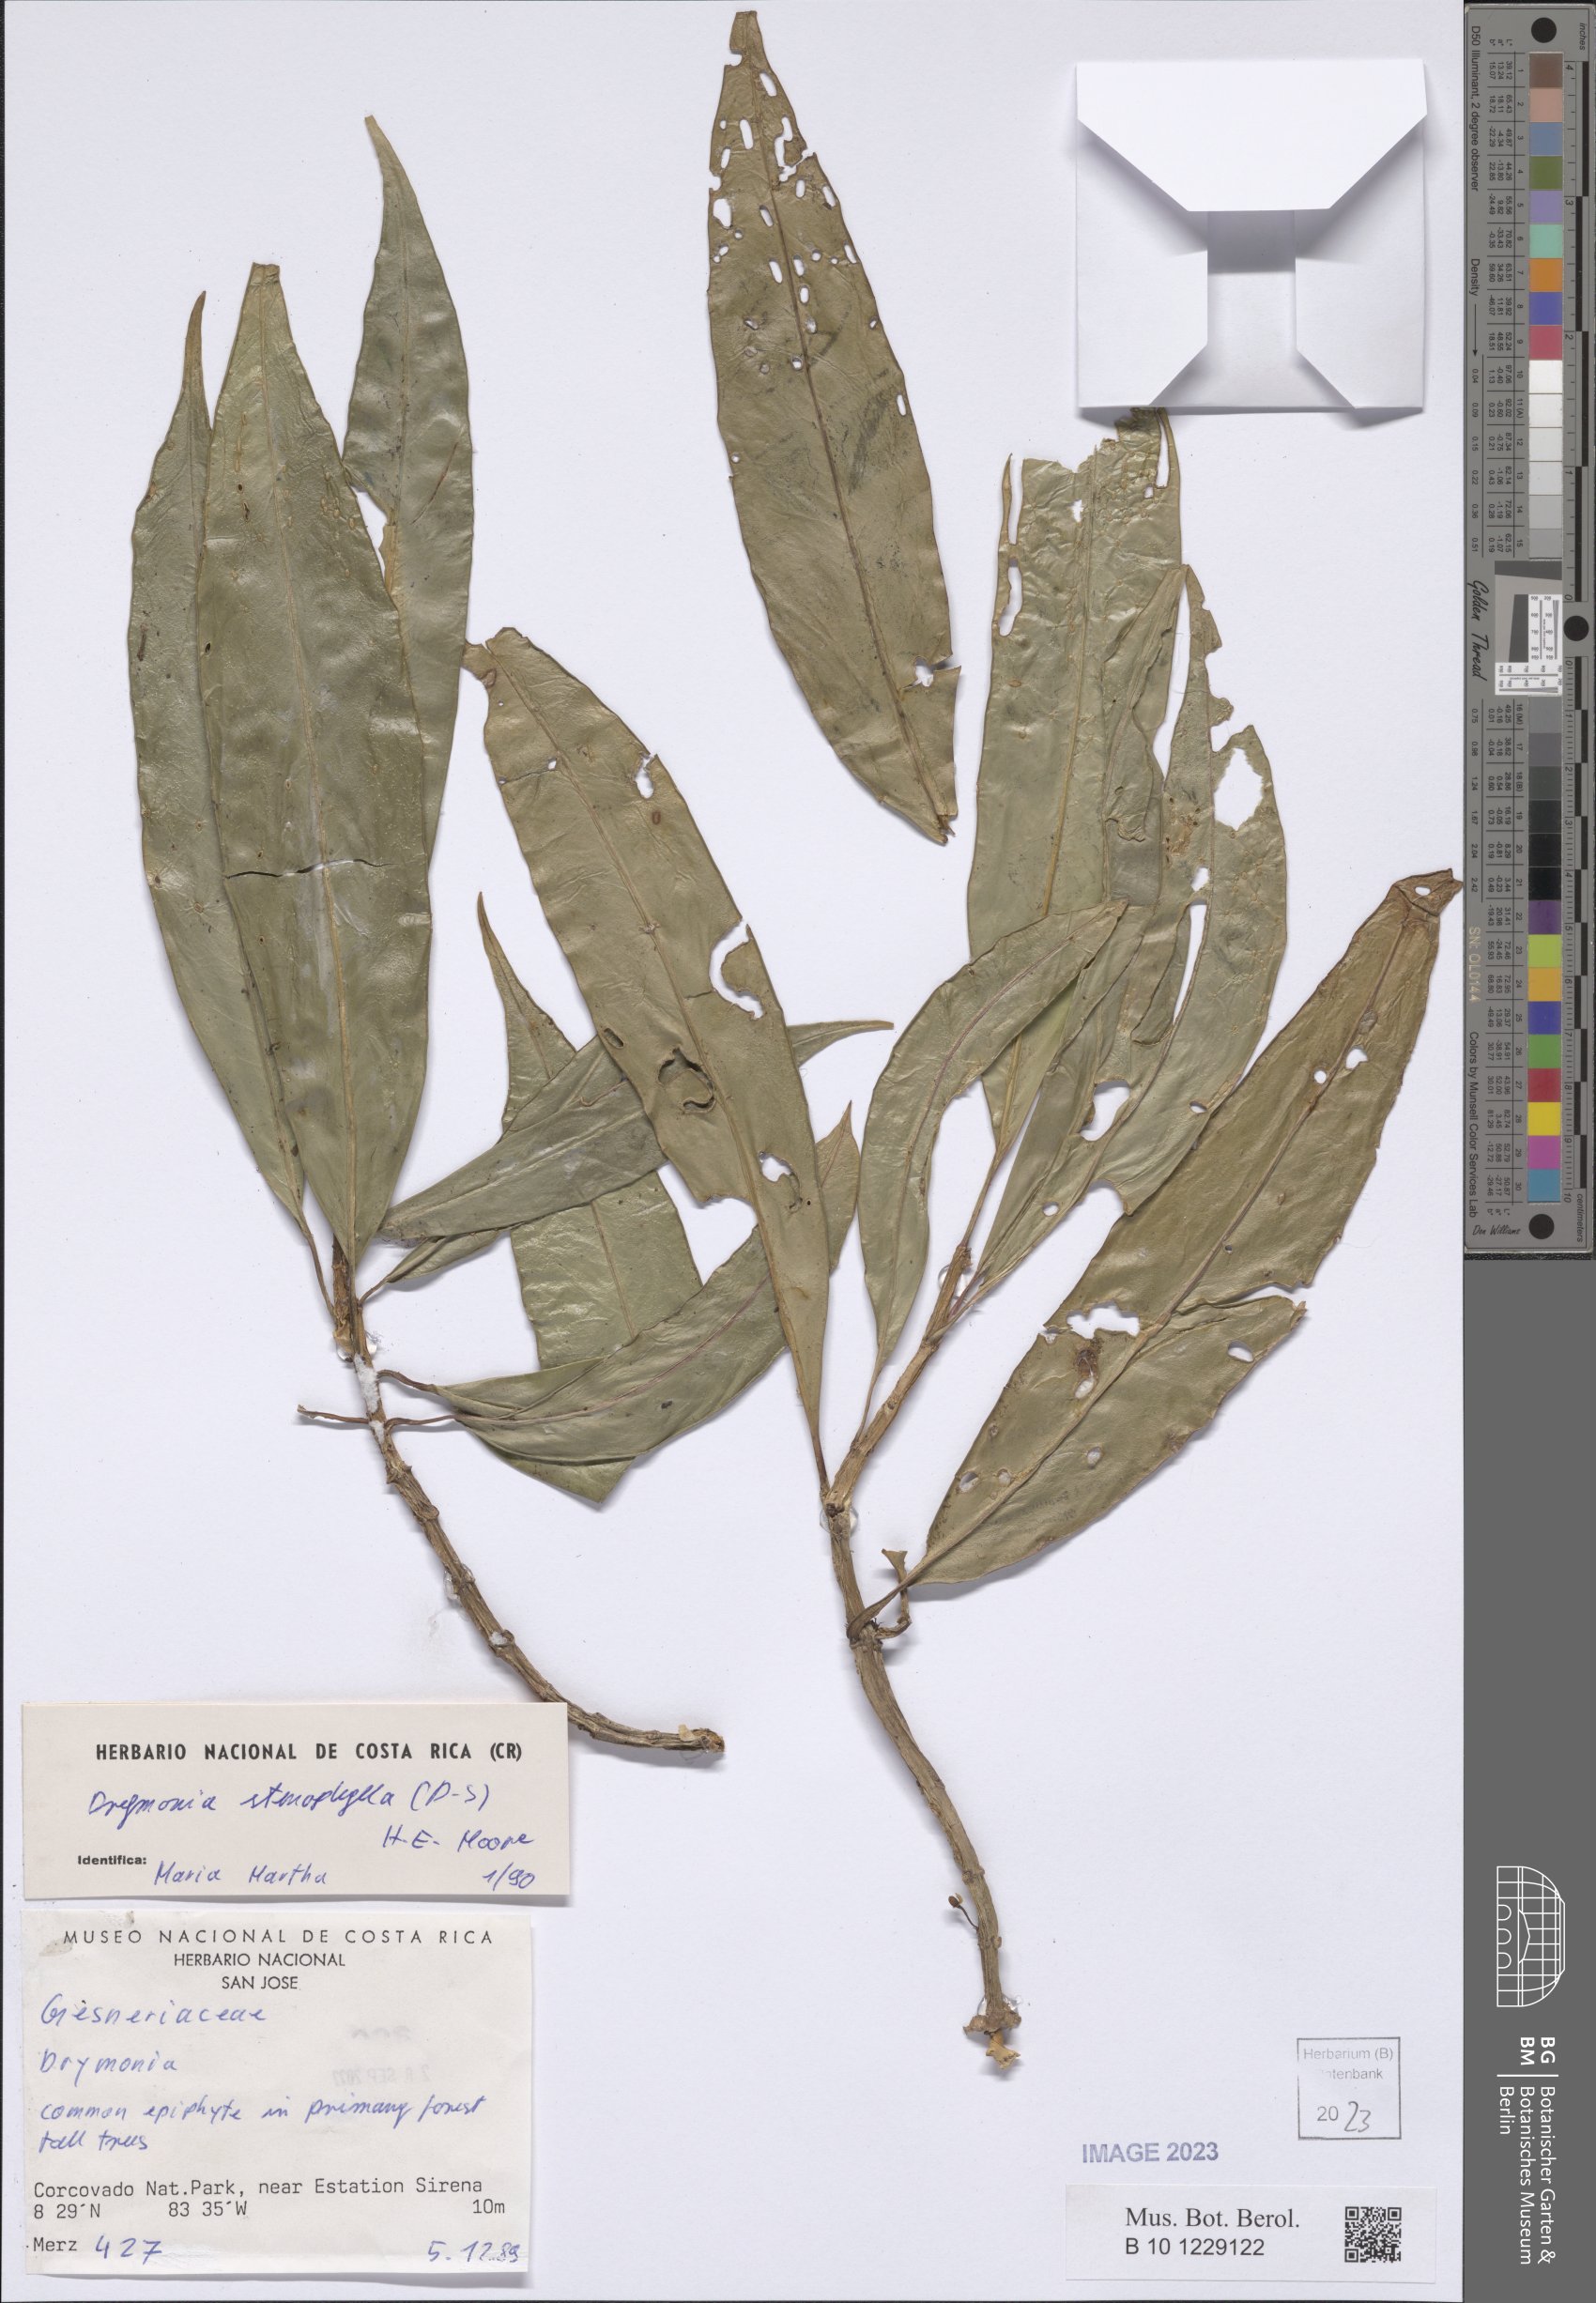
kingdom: Plantae
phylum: Tracheophyta
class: Magnoliopsida
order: Lamiales
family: Gesneriaceae
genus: Drymonia
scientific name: Drymonia stenophylla
